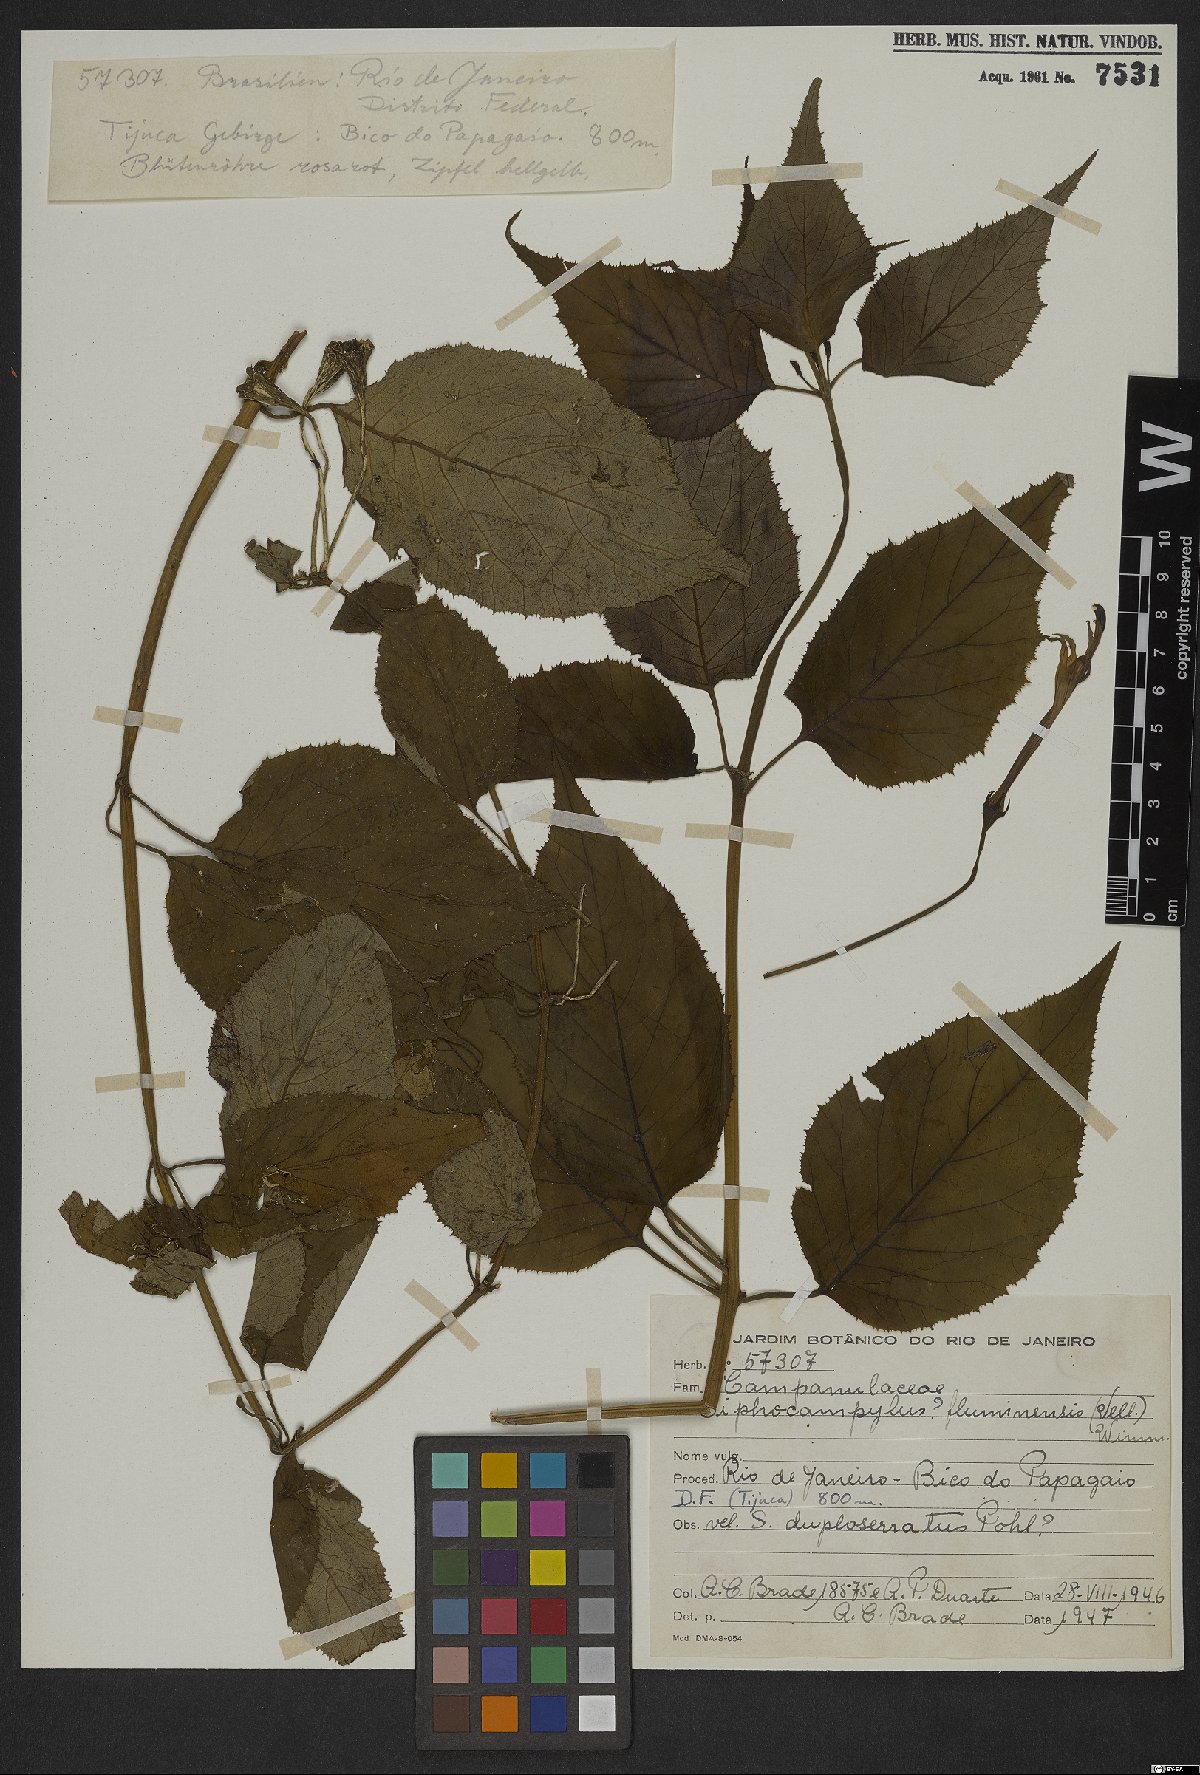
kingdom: Plantae
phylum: Tracheophyta
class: Magnoliopsida
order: Asterales
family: Campanulaceae
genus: Siphocampylus
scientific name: Siphocampylus fluminensis
